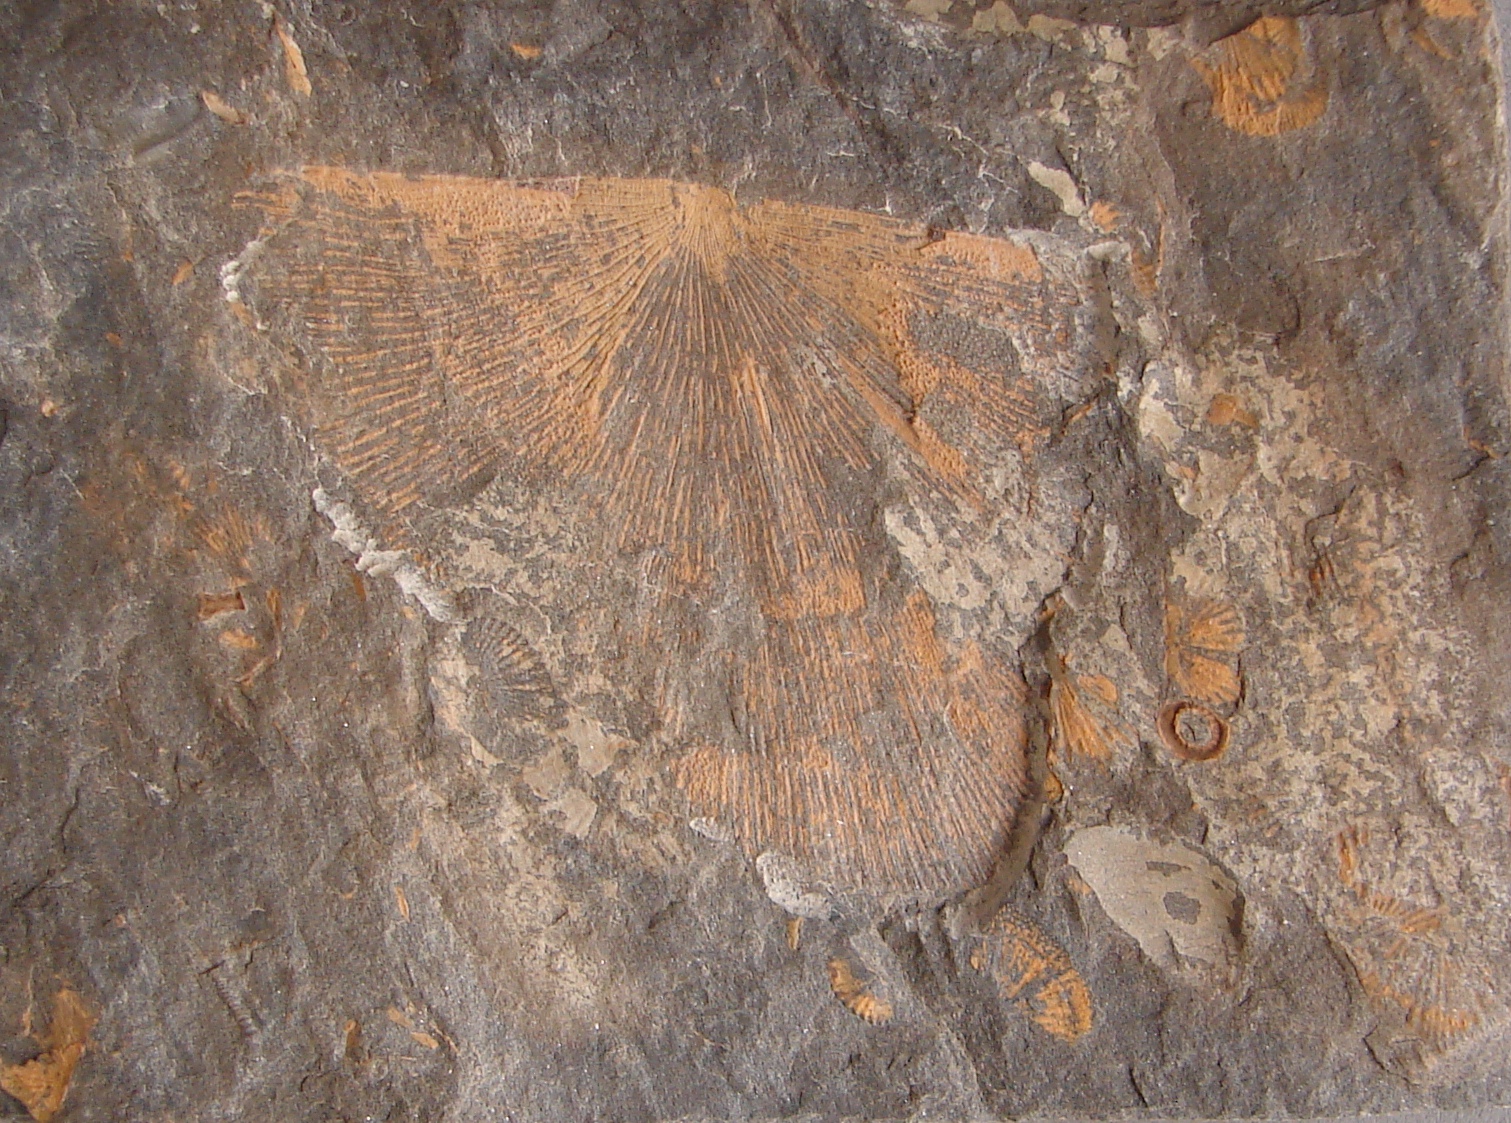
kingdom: Animalia
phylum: Brachiopoda
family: Chilidiopsidae
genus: Iridistrophia
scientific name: Iridistrophia
